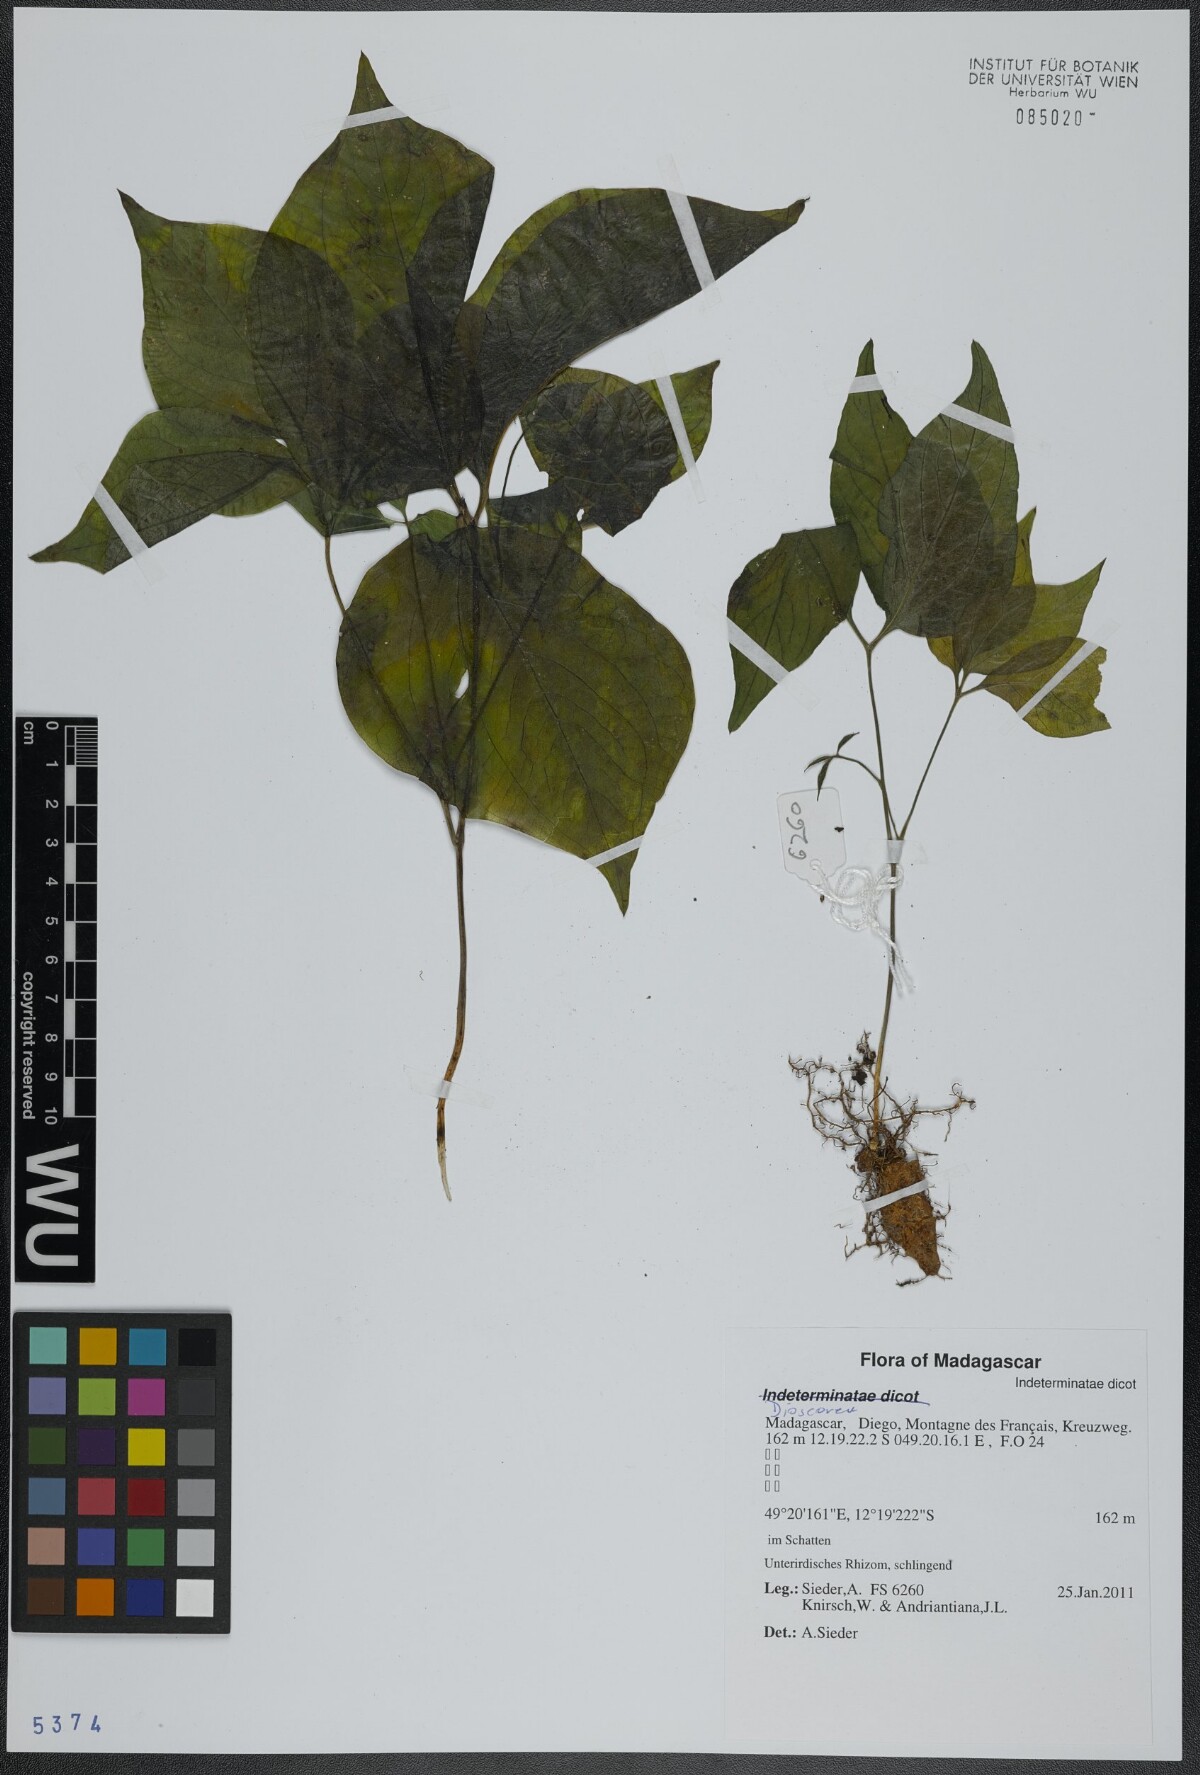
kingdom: Plantae
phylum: Tracheophyta
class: Liliopsida
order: Dioscoreales
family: Dioscoreaceae
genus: Dioscorea
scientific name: Dioscorea
